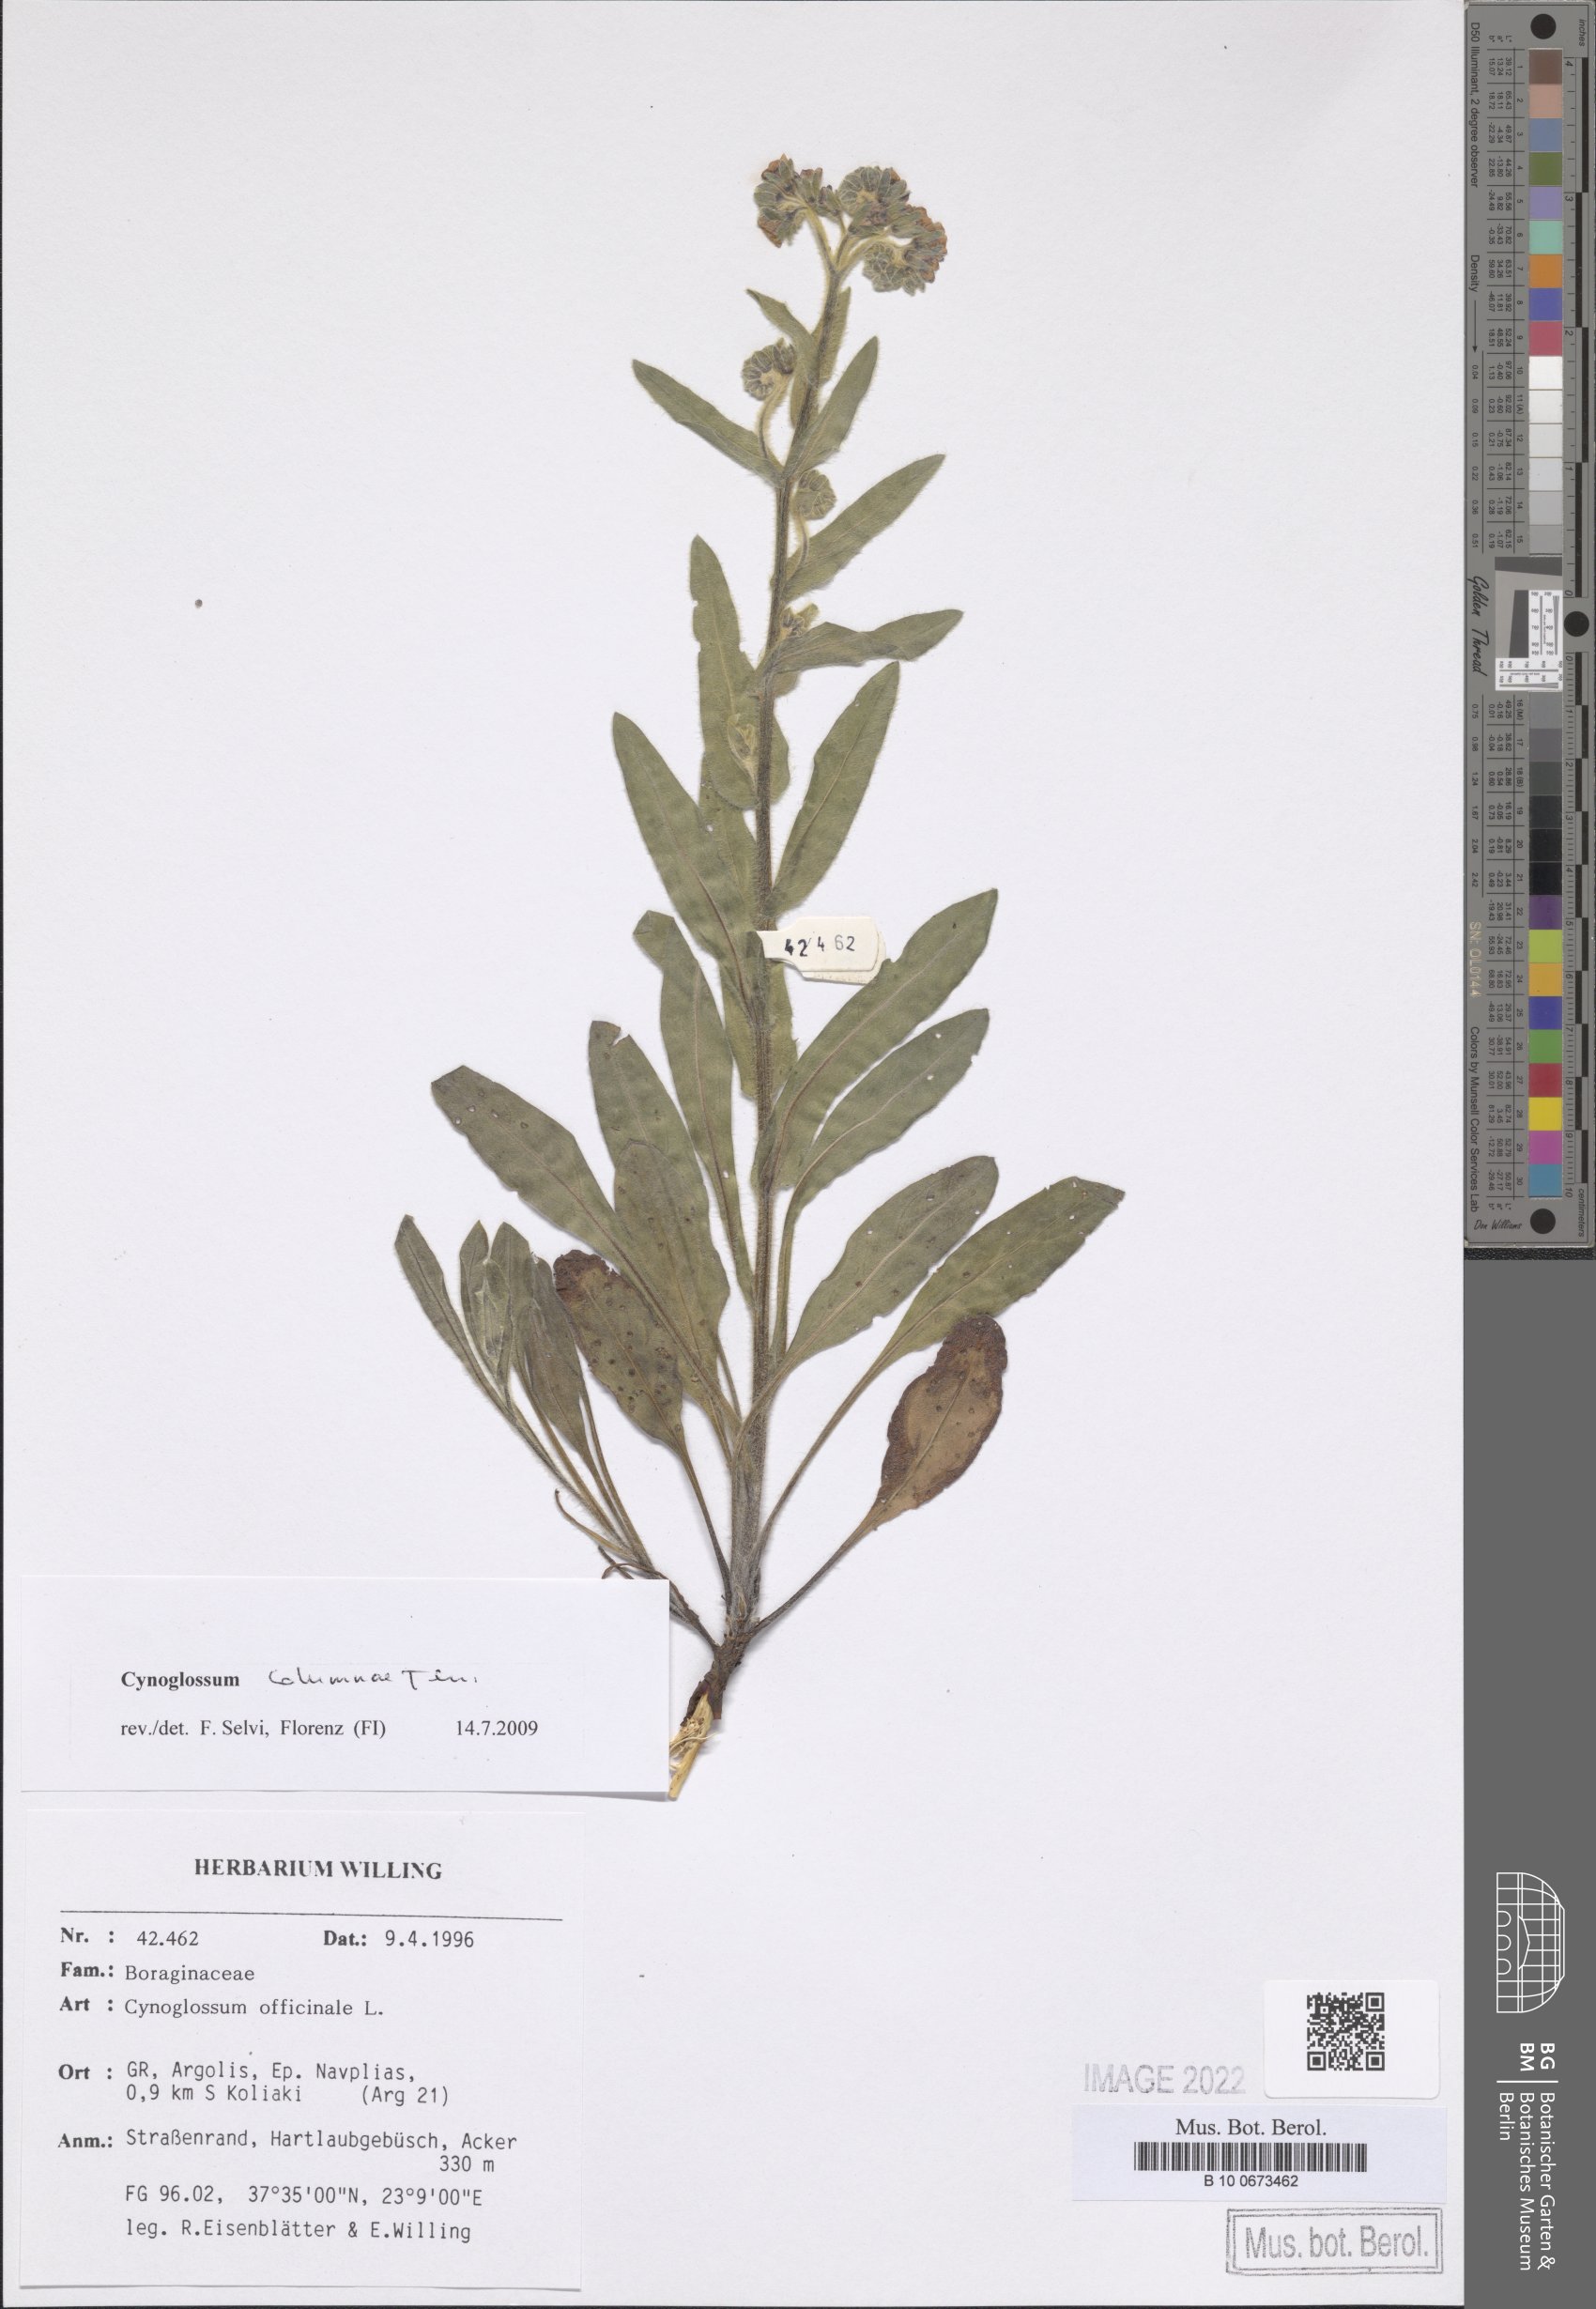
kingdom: Plantae
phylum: Tracheophyta
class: Magnoliopsida
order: Boraginales
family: Boraginaceae
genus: Rindera
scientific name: Rindera columnae
